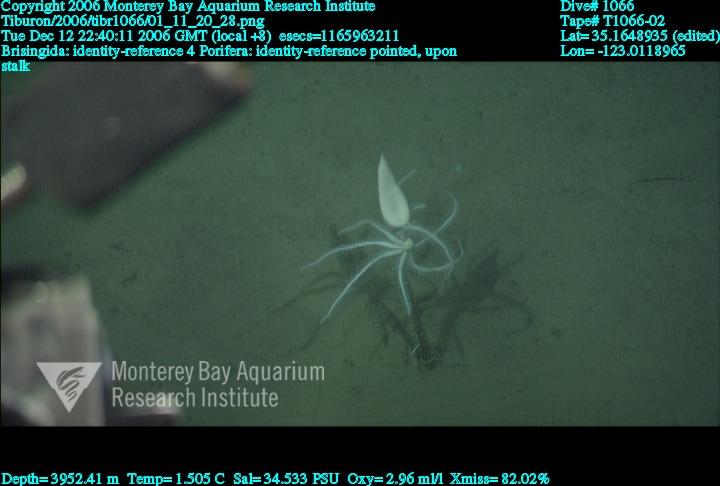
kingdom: Animalia
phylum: Porifera
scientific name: Porifera
